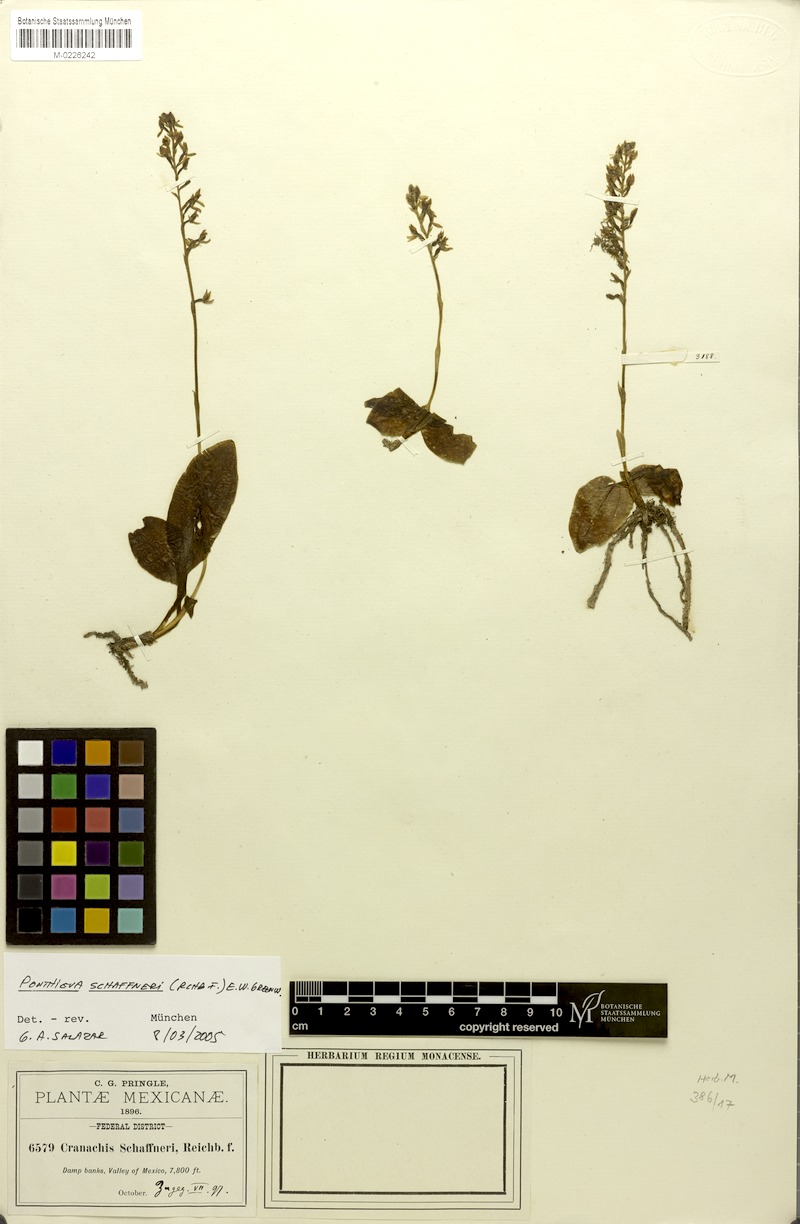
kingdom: Plantae
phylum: Tracheophyta
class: Liliopsida
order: Asparagales
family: Orchidaceae
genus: Ponthieva
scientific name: Ponthieva schaffneri
